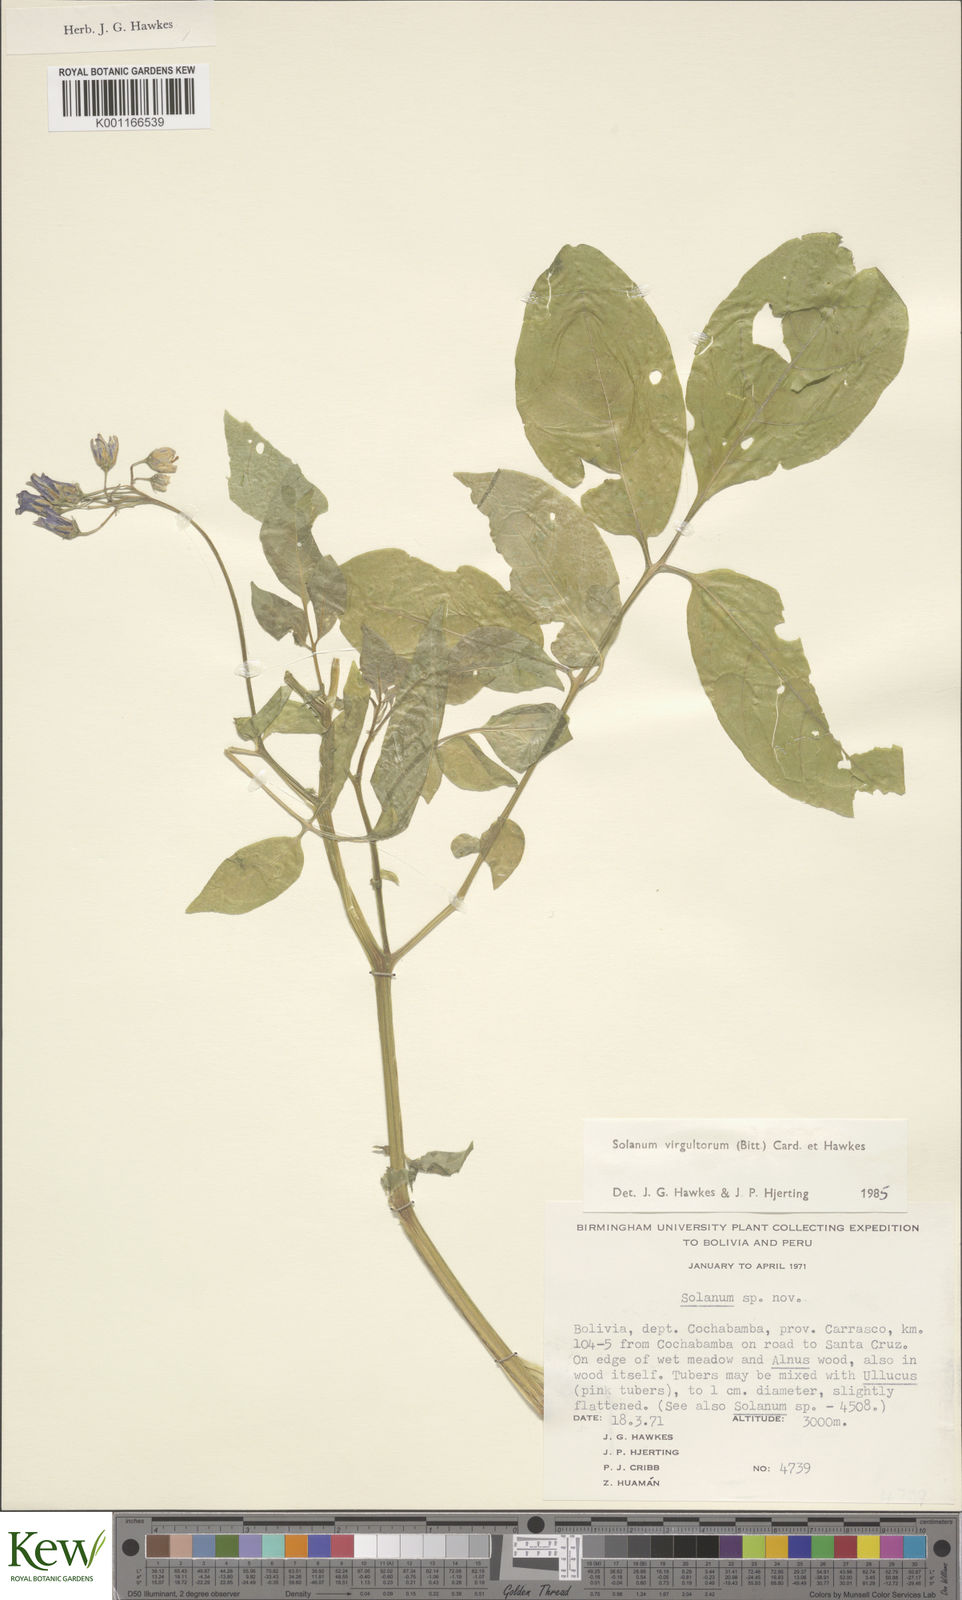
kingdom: Plantae
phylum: Tracheophyta
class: Magnoliopsida
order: Solanales
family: Solanaceae
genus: Solanum
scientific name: Solanum
